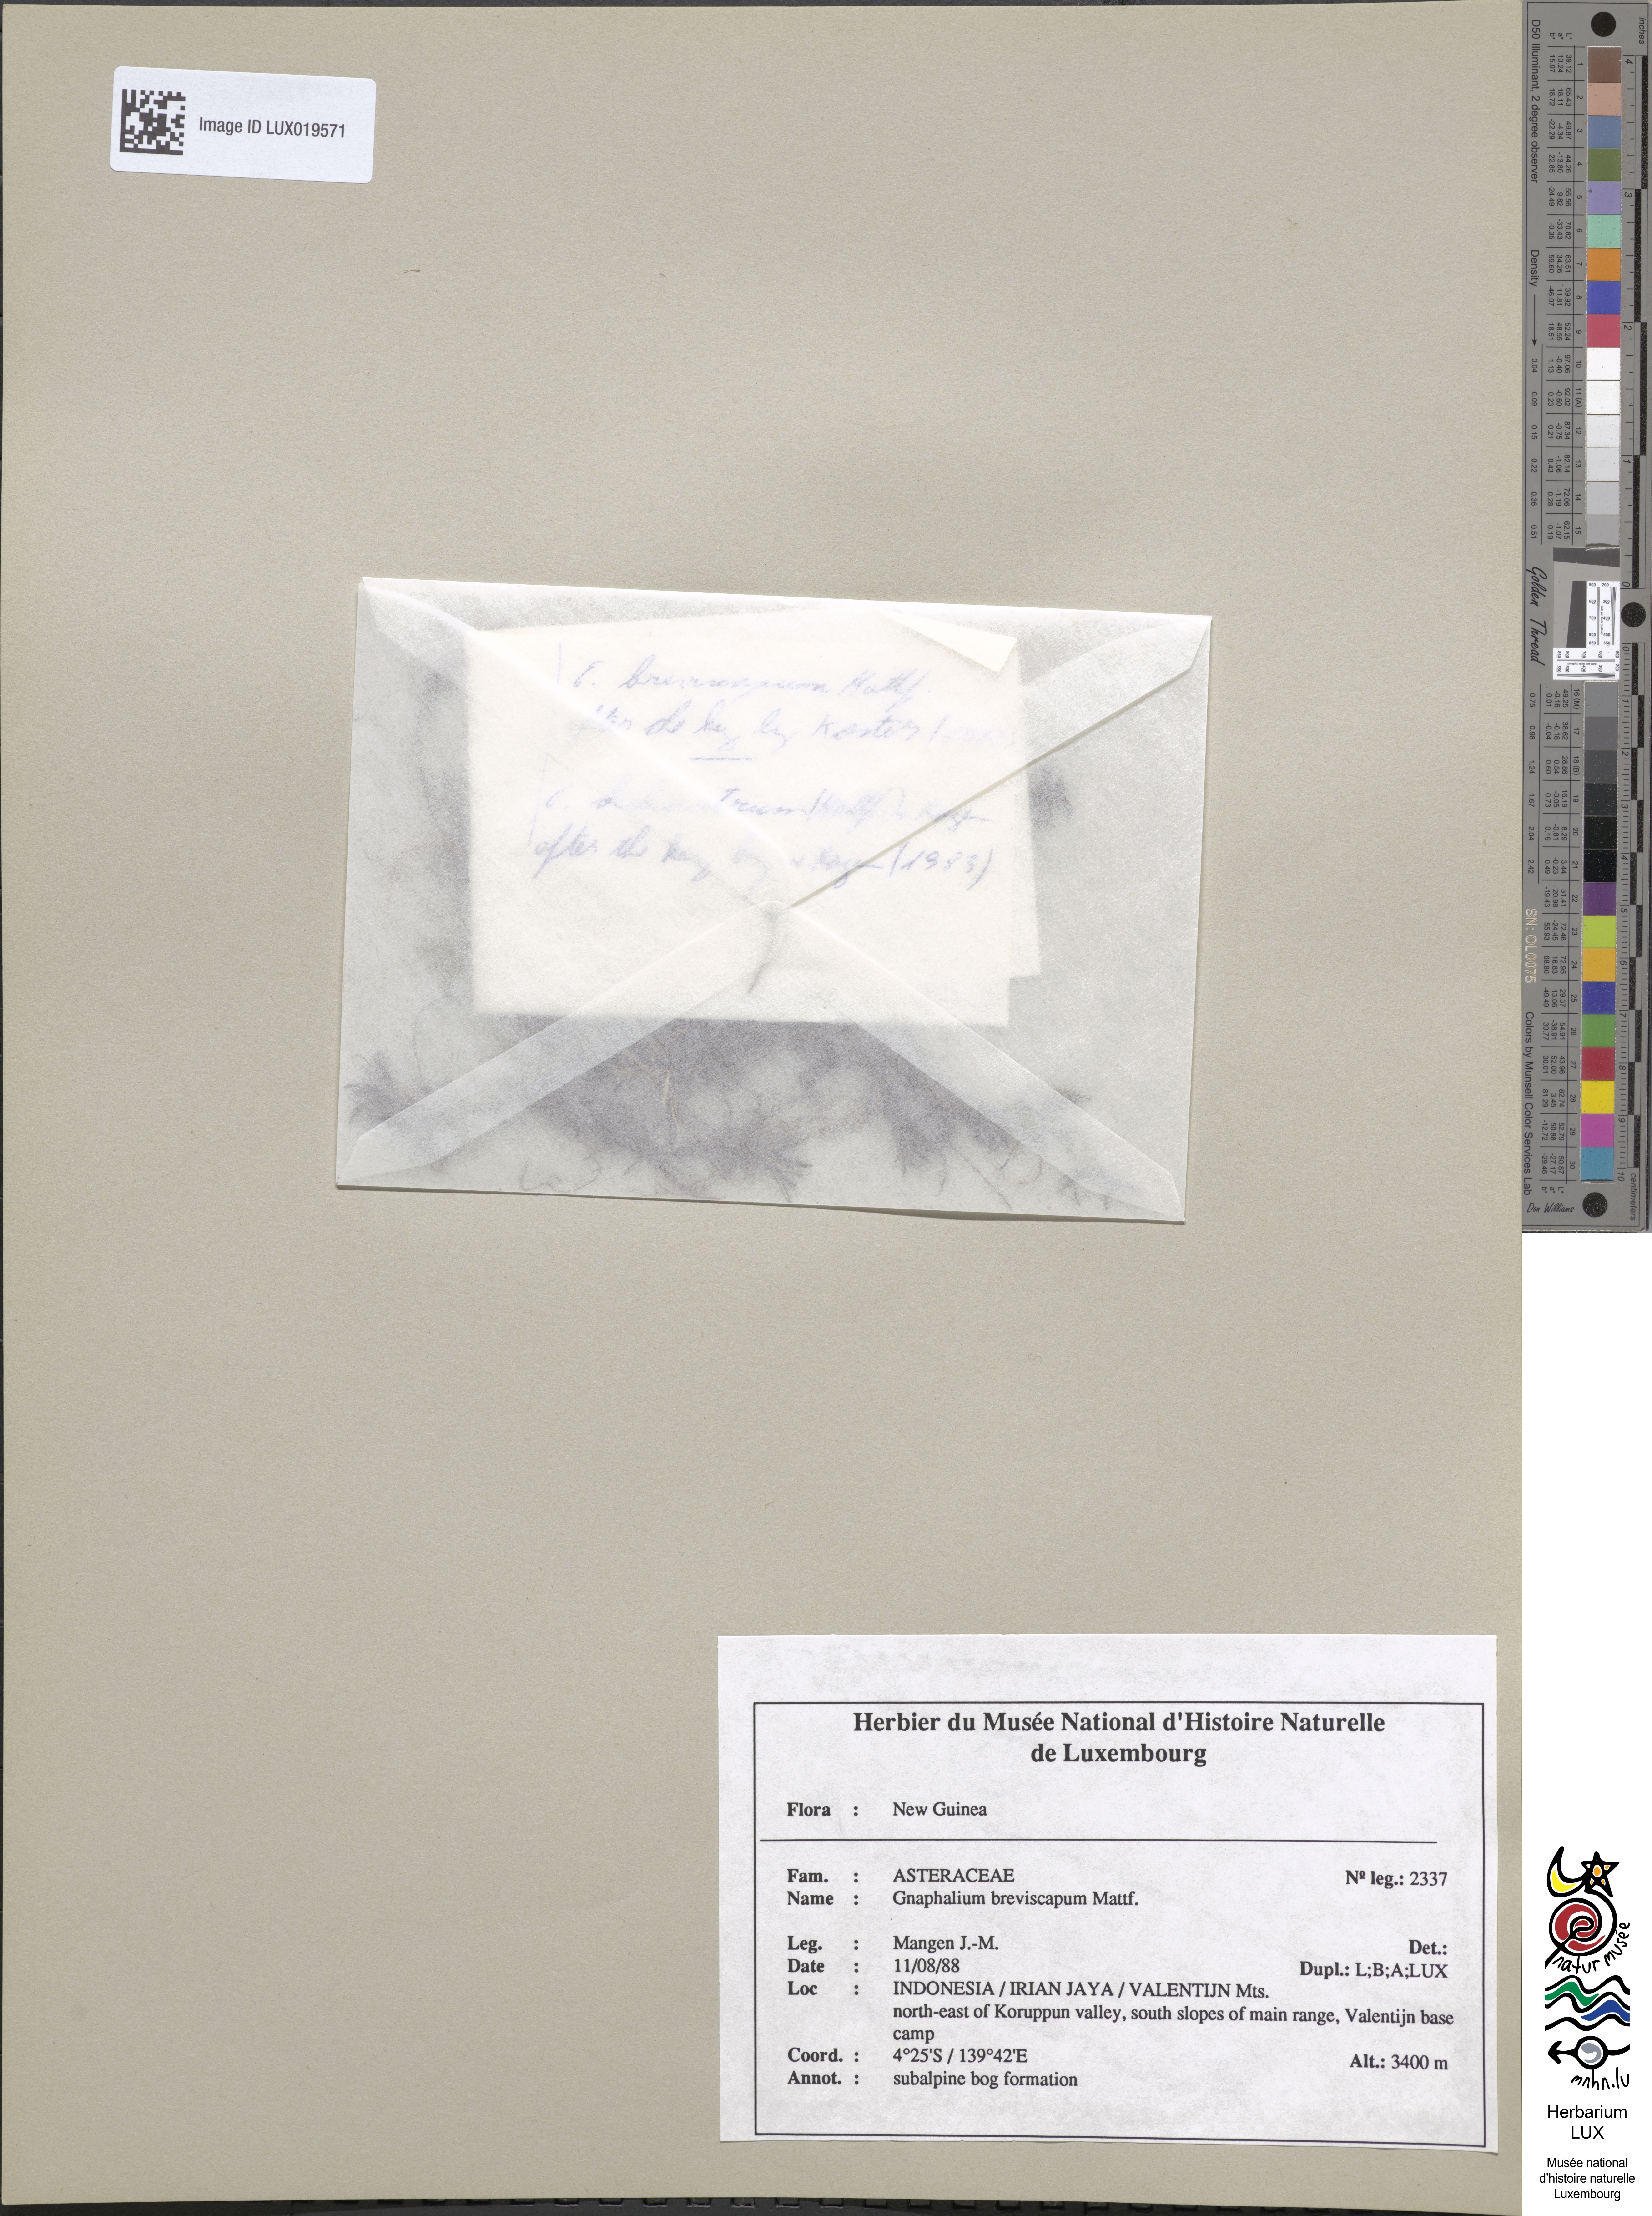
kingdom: Plantae
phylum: Tracheophyta
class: Magnoliopsida
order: Asterales
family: Asteraceae
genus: Euchiton
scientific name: Euchiton breviscapus
